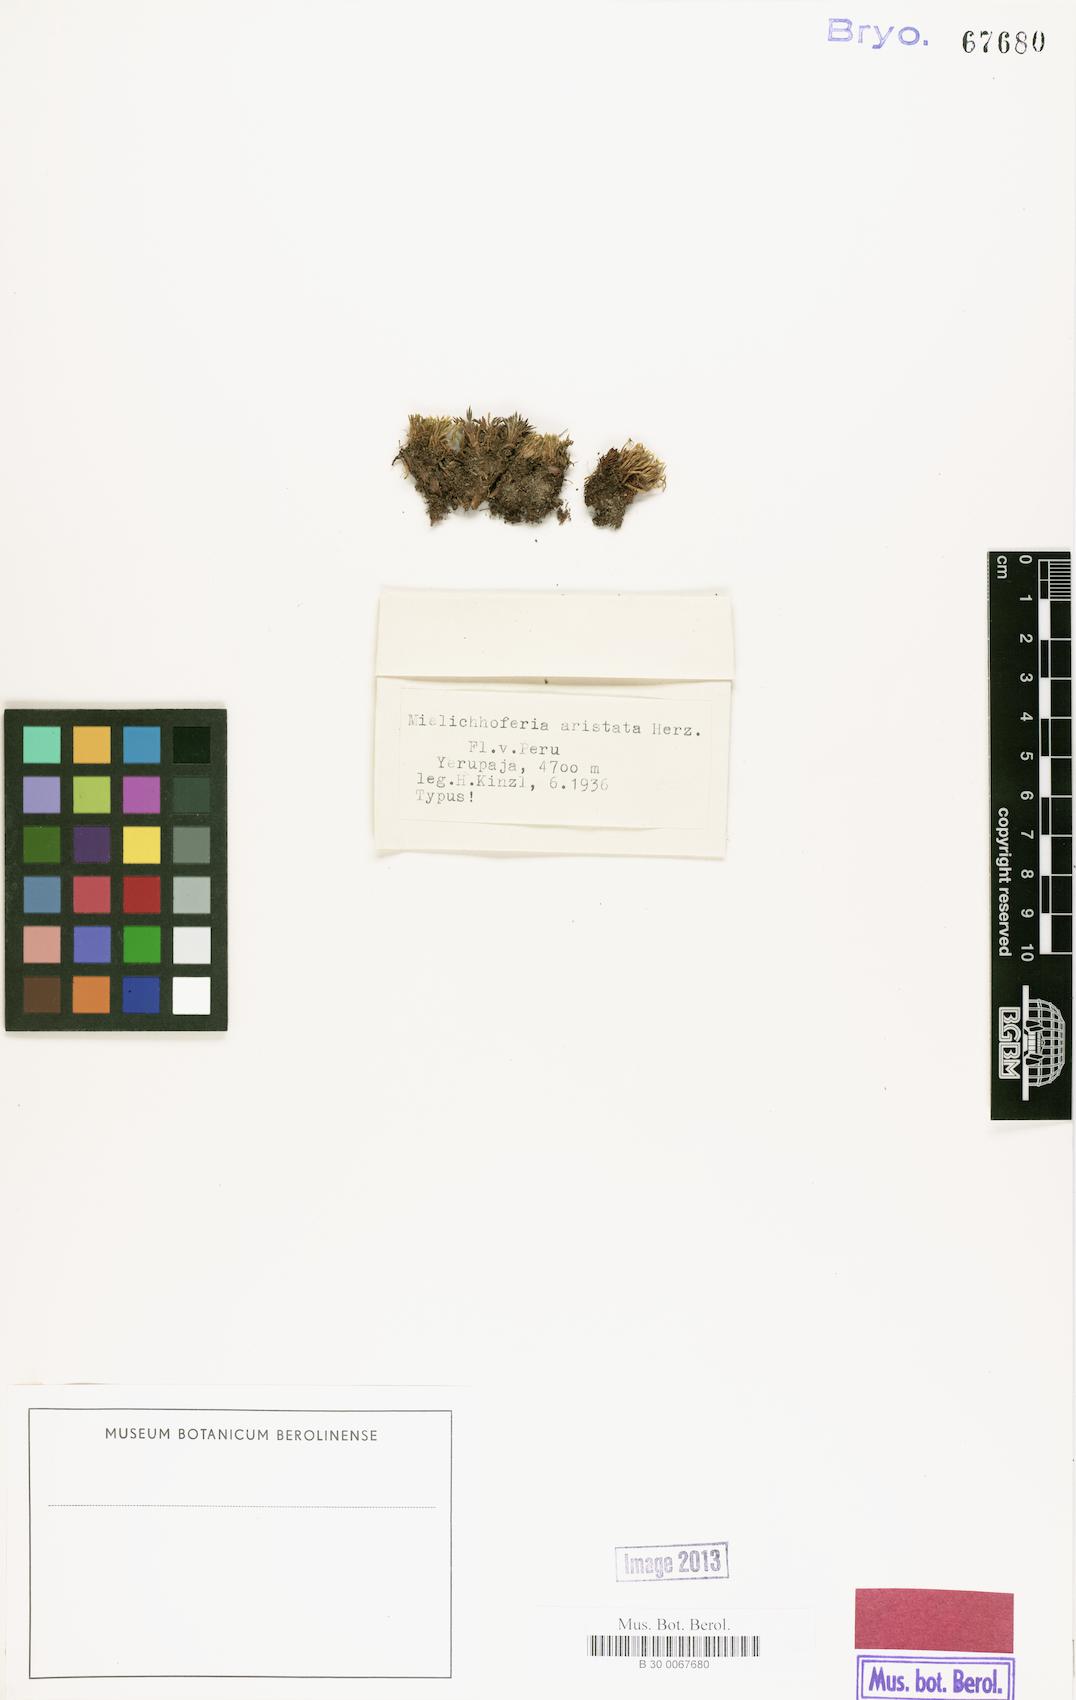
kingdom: Plantae
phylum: Bryophyta
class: Bryopsida
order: Bryales
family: Mniaceae
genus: Mielichhoferia
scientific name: Mielichhoferia aristata
